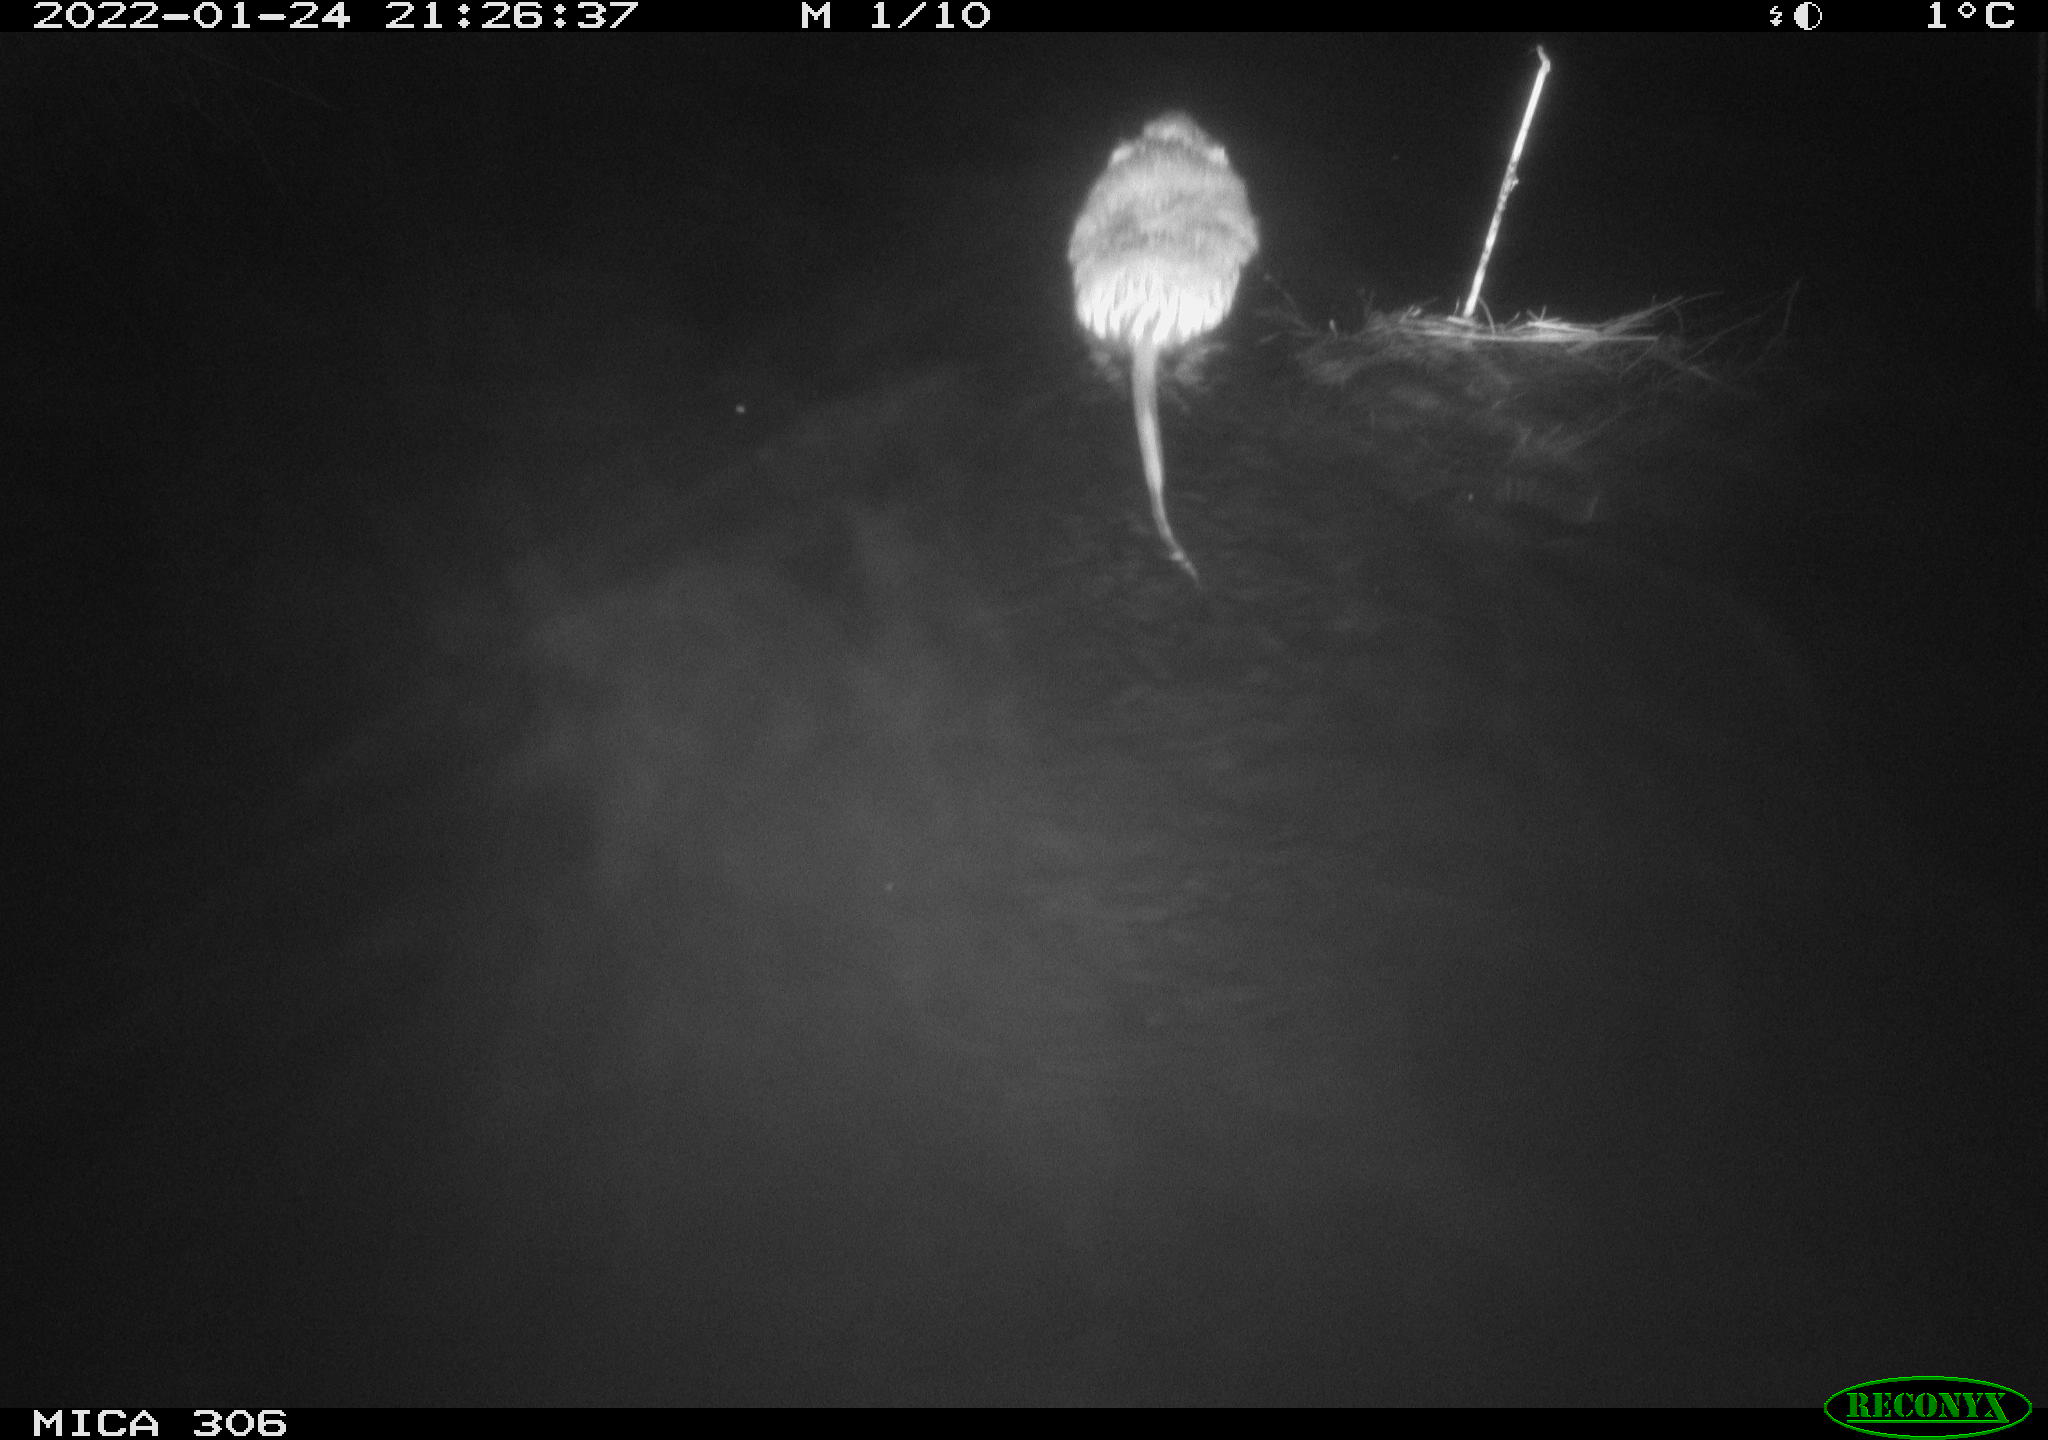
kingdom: Animalia
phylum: Chordata
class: Mammalia
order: Rodentia
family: Cricetidae
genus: Ondatra
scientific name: Ondatra zibethicus
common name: Muskrat
